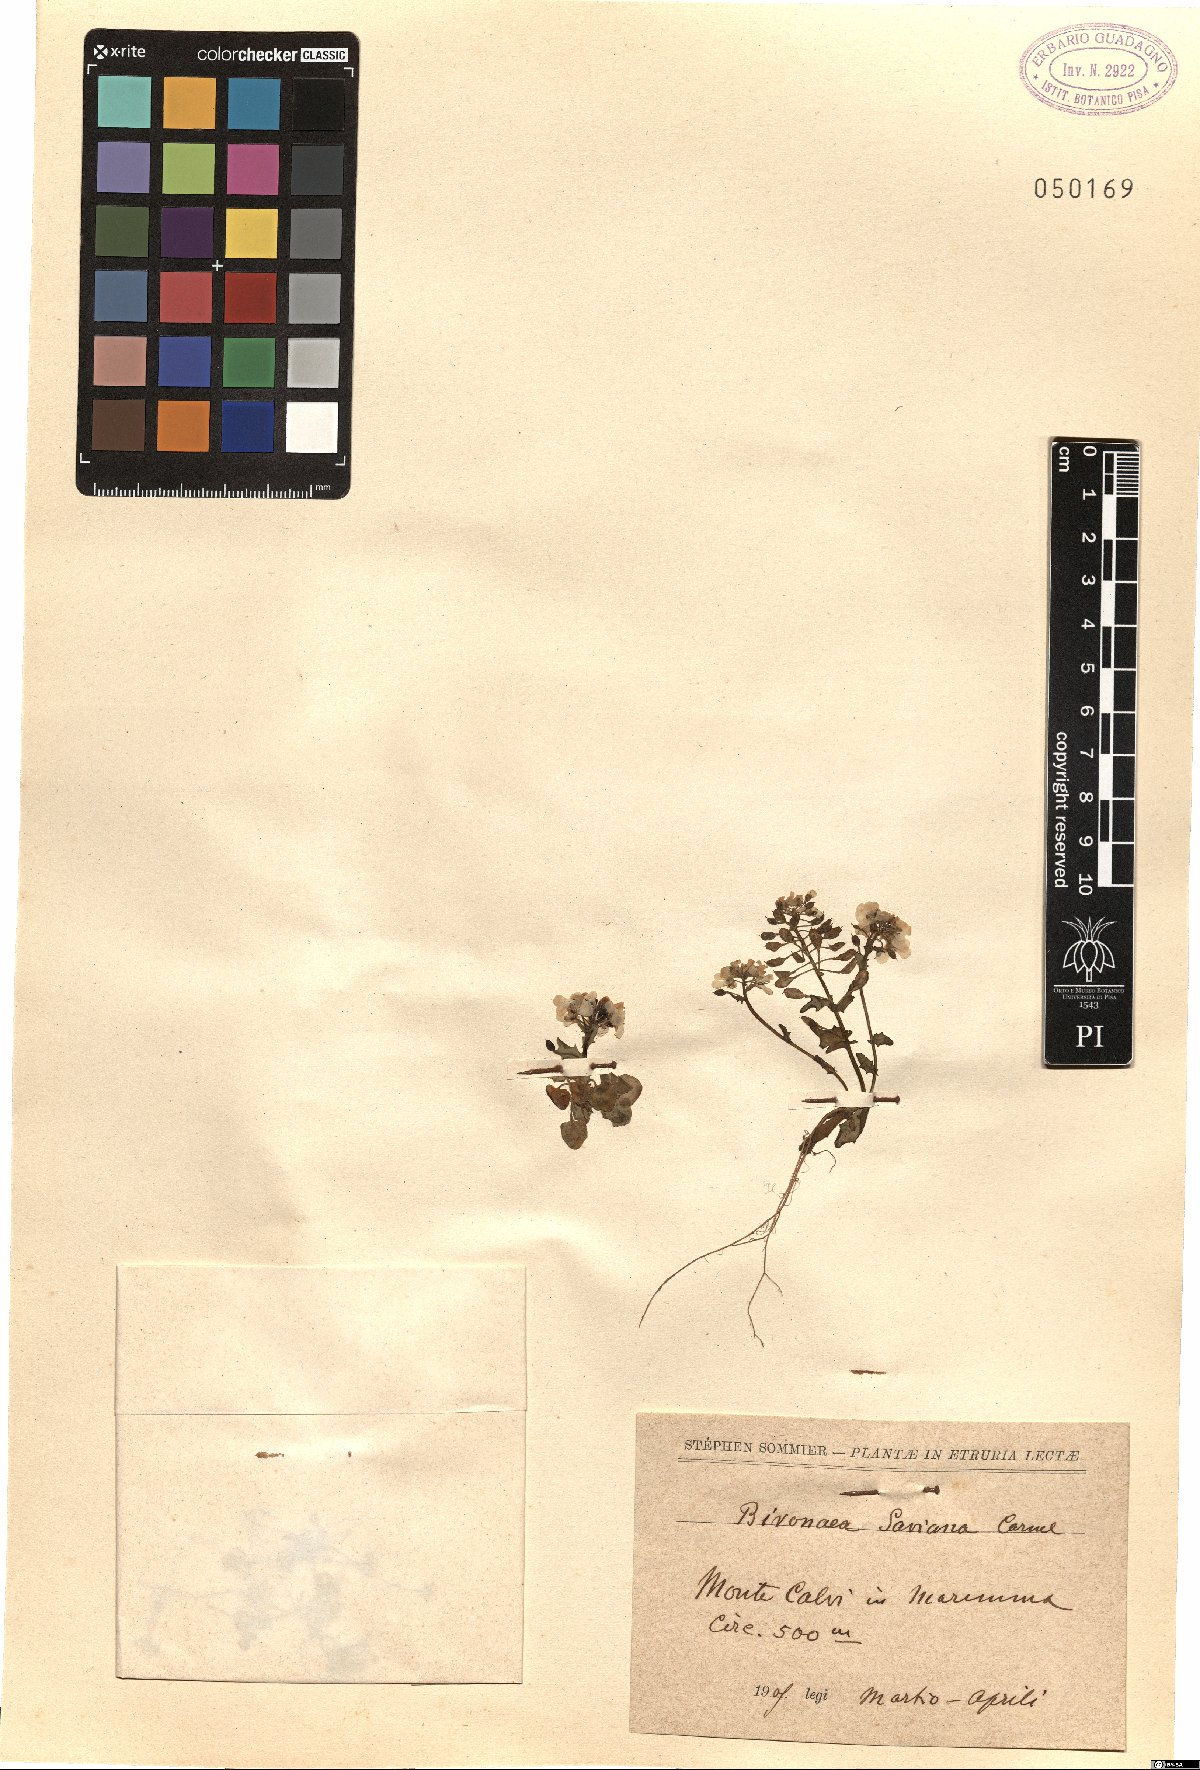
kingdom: Plantae
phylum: Tracheophyta
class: Magnoliopsida
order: Brassicales
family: Brassicaceae
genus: Ionopsidium
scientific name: Ionopsidium savianum
